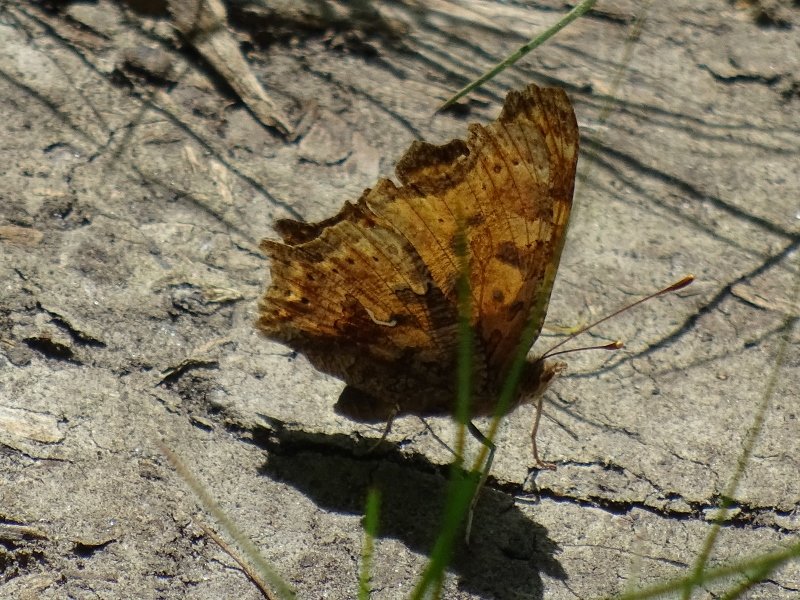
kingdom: Animalia
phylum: Arthropoda
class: Insecta
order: Lepidoptera
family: Nymphalidae
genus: Polygonia
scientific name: Polygonia comma
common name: Eastern Comma
